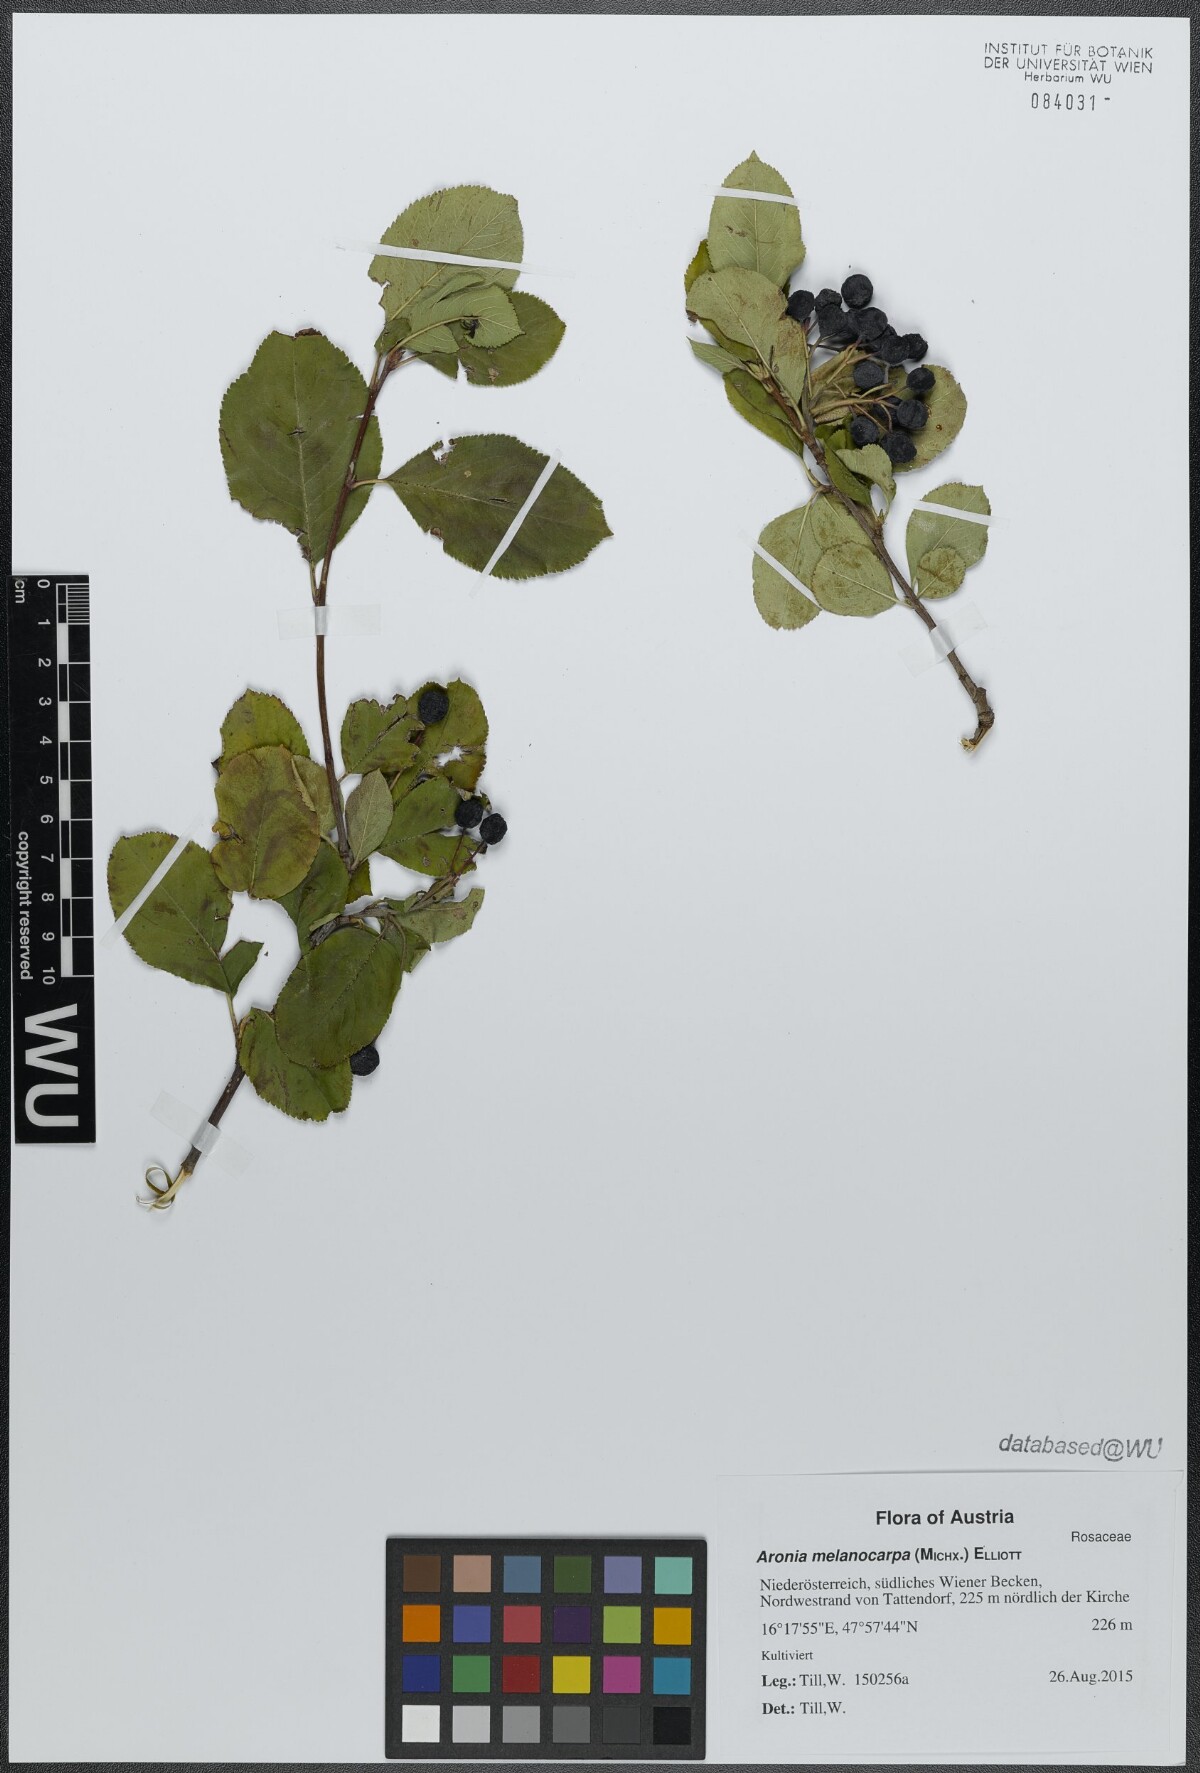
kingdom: Plantae
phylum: Tracheophyta
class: Magnoliopsida
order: Rosales
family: Rosaceae
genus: Aronia
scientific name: Aronia melanocarpa
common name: Black chokeberry
